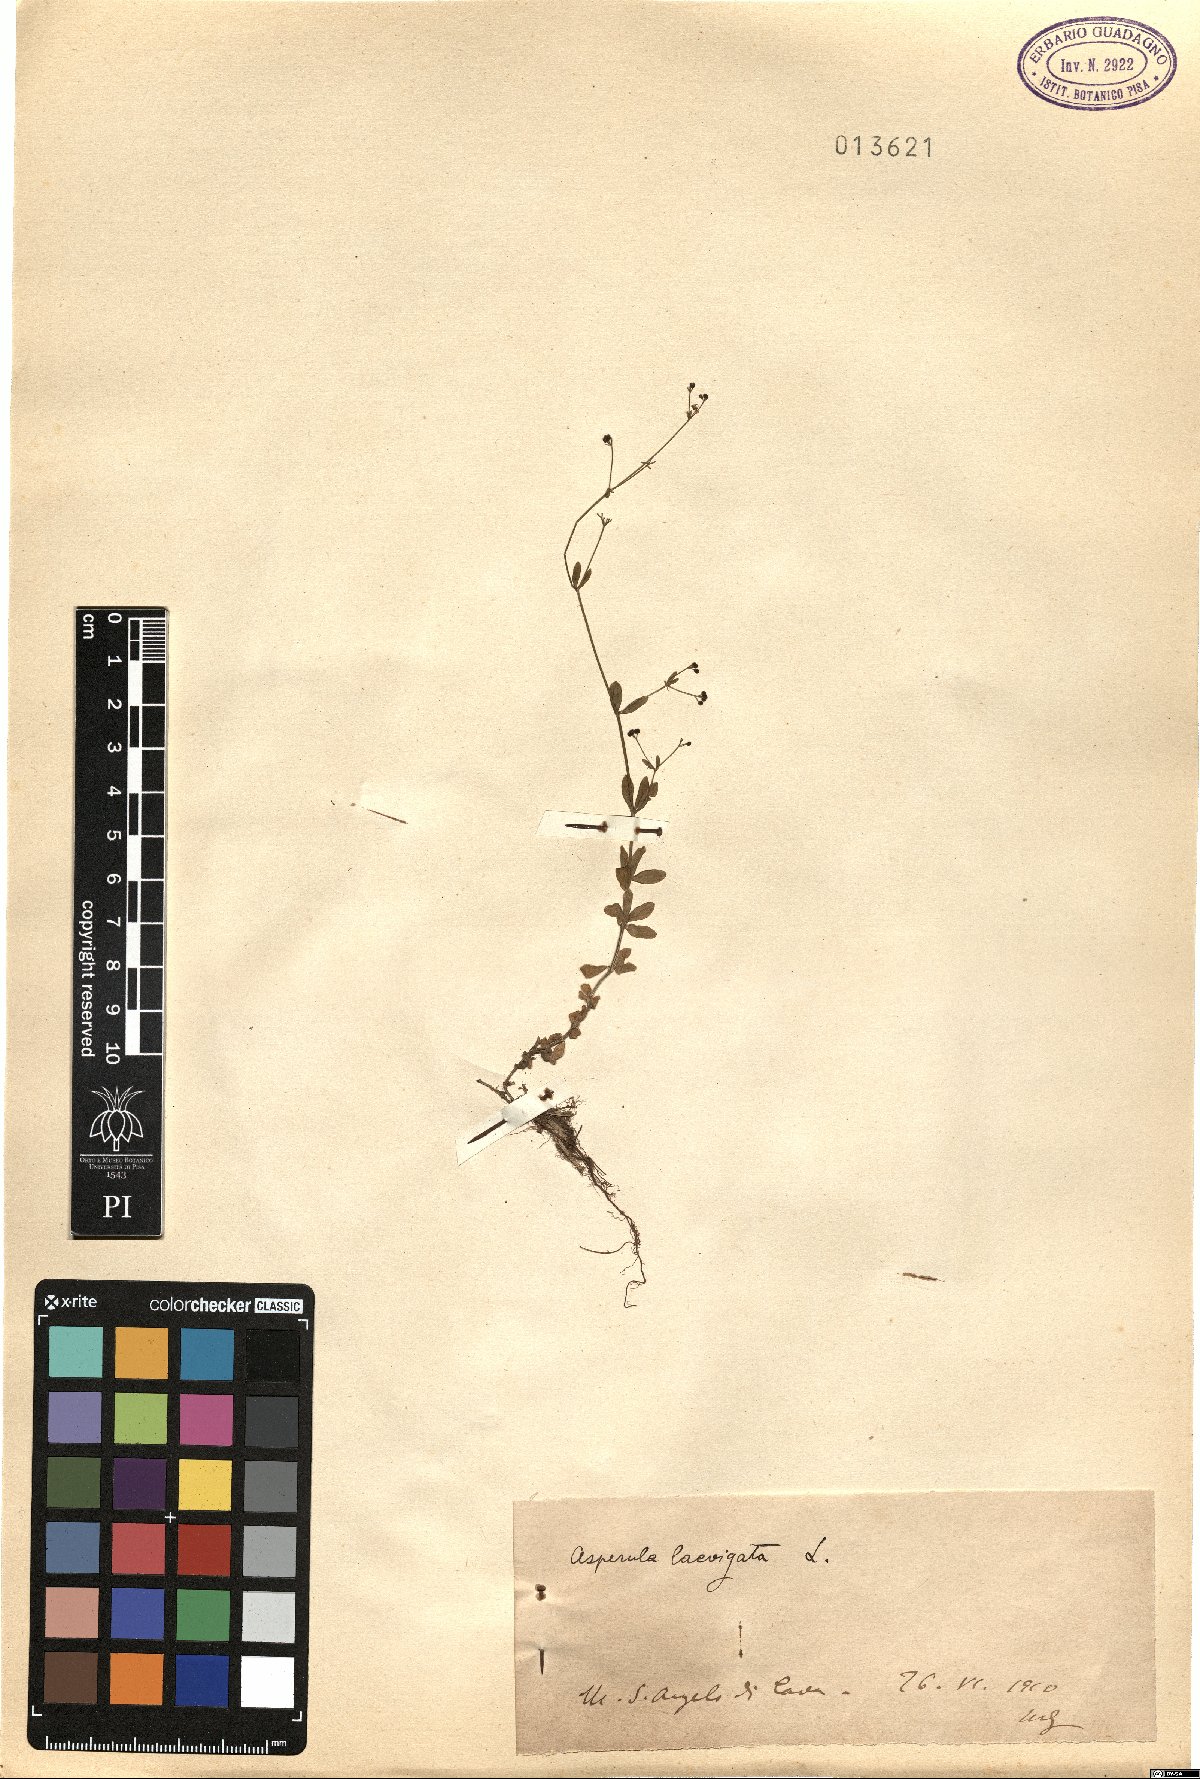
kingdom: Plantae
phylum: Tracheophyta
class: Magnoliopsida
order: Gentianales
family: Rubiaceae
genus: Asperula
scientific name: Asperula laevigata
